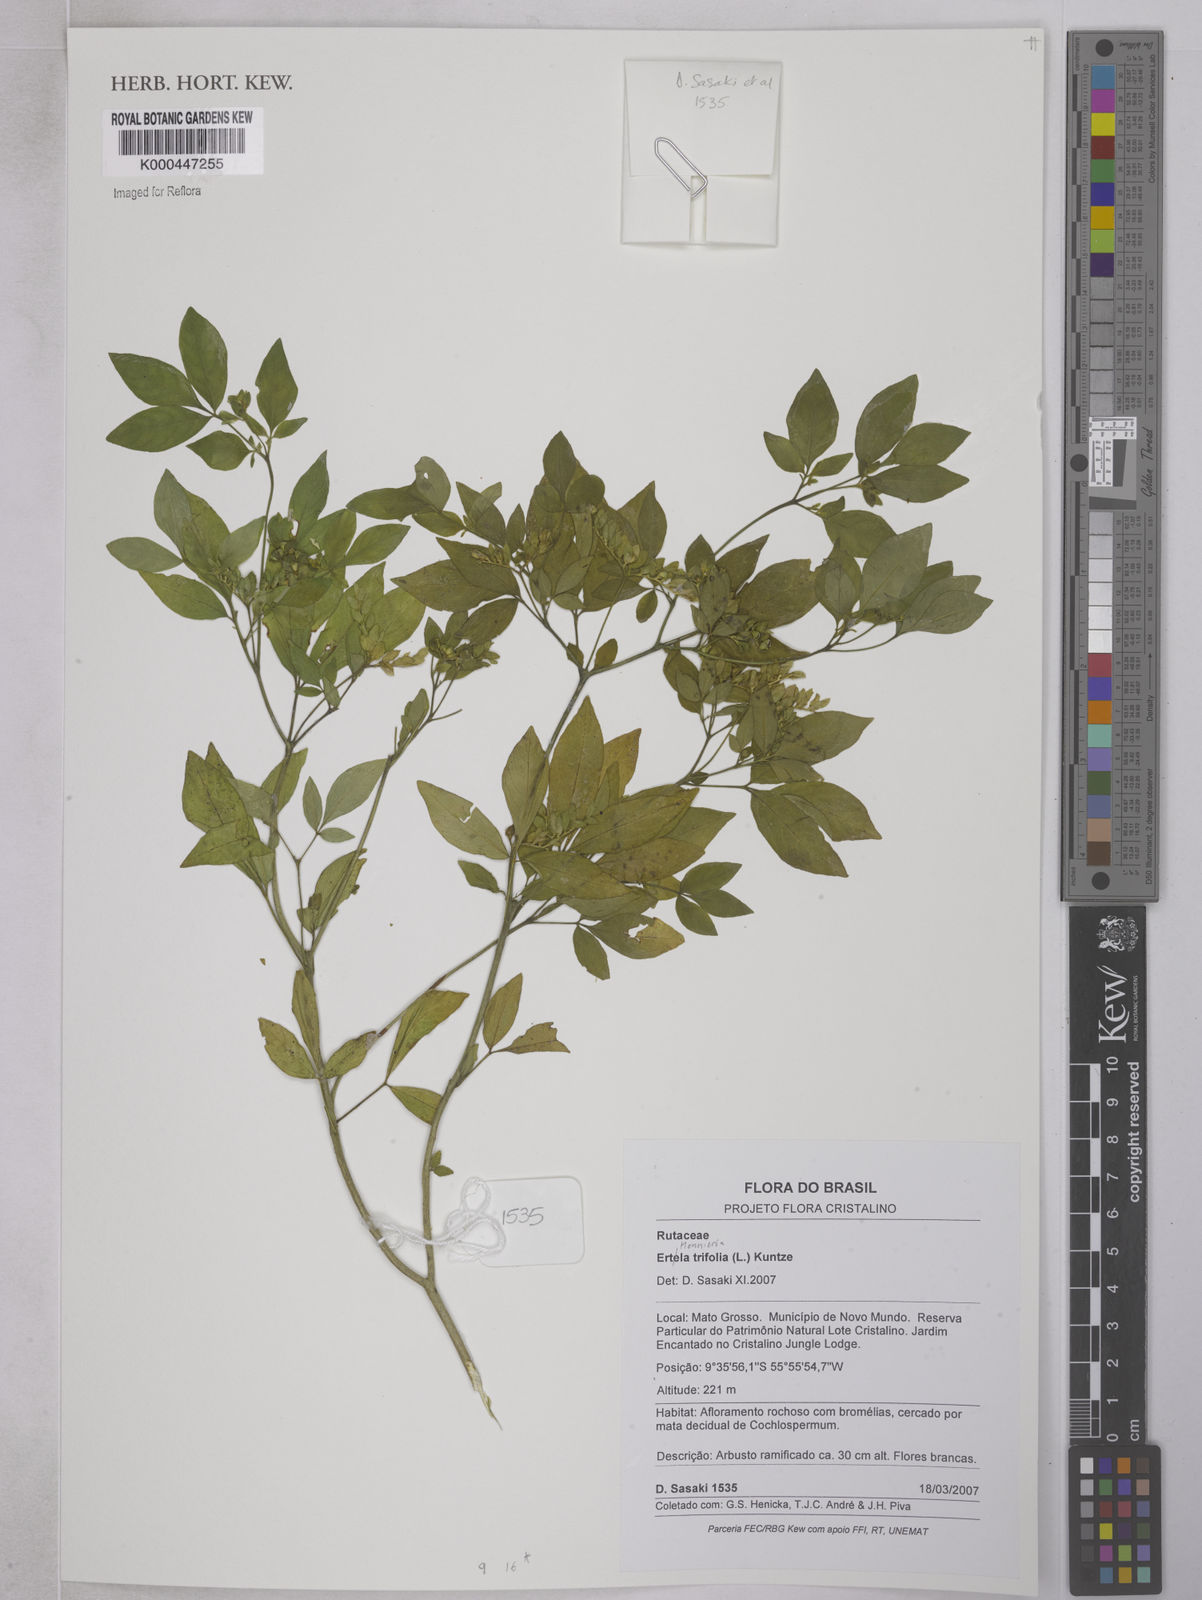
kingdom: Plantae
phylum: Tracheophyta
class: Magnoliopsida
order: Sapindales
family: Rutaceae
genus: Ertela
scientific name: Ertela trifolia
